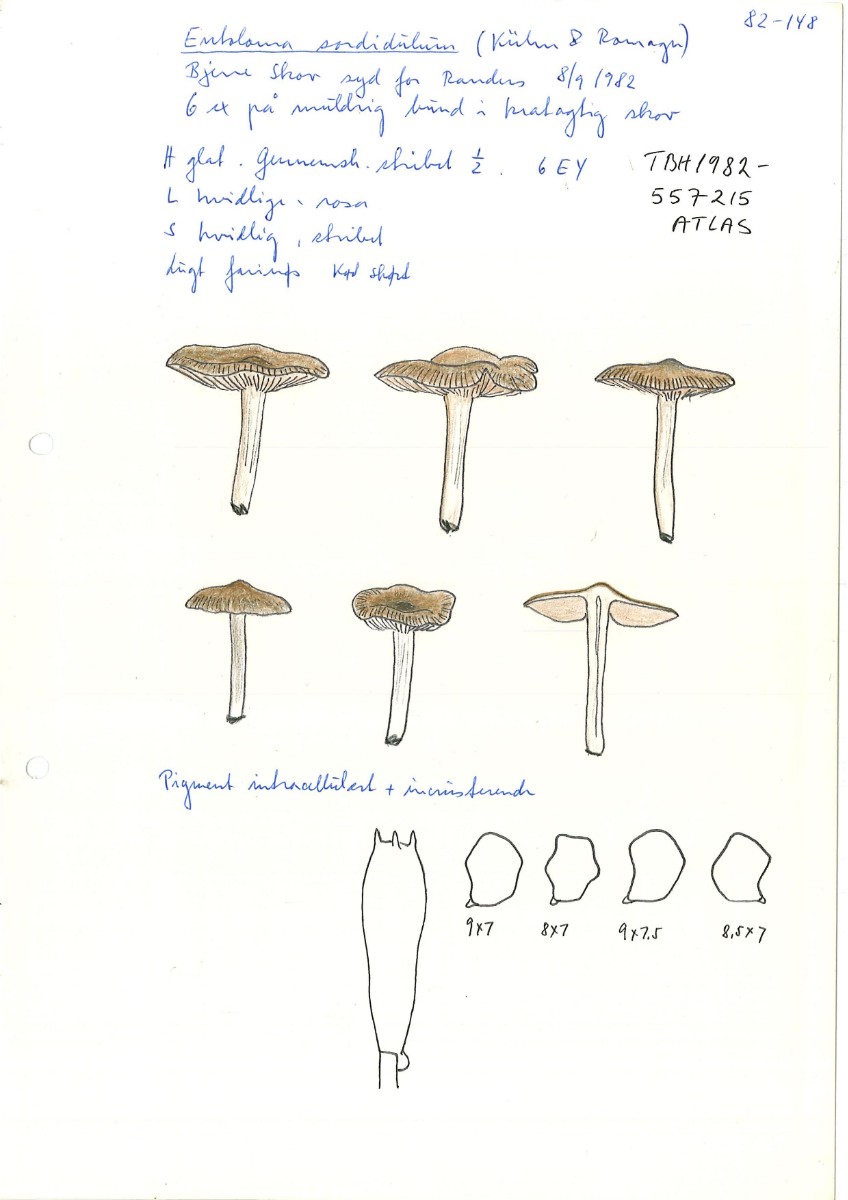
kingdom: Fungi
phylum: Basidiomycota
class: Agaricomycetes
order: Agaricales
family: Entolomataceae
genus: Entoloma
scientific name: Entoloma sordidulum
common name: smudsig rødblad
